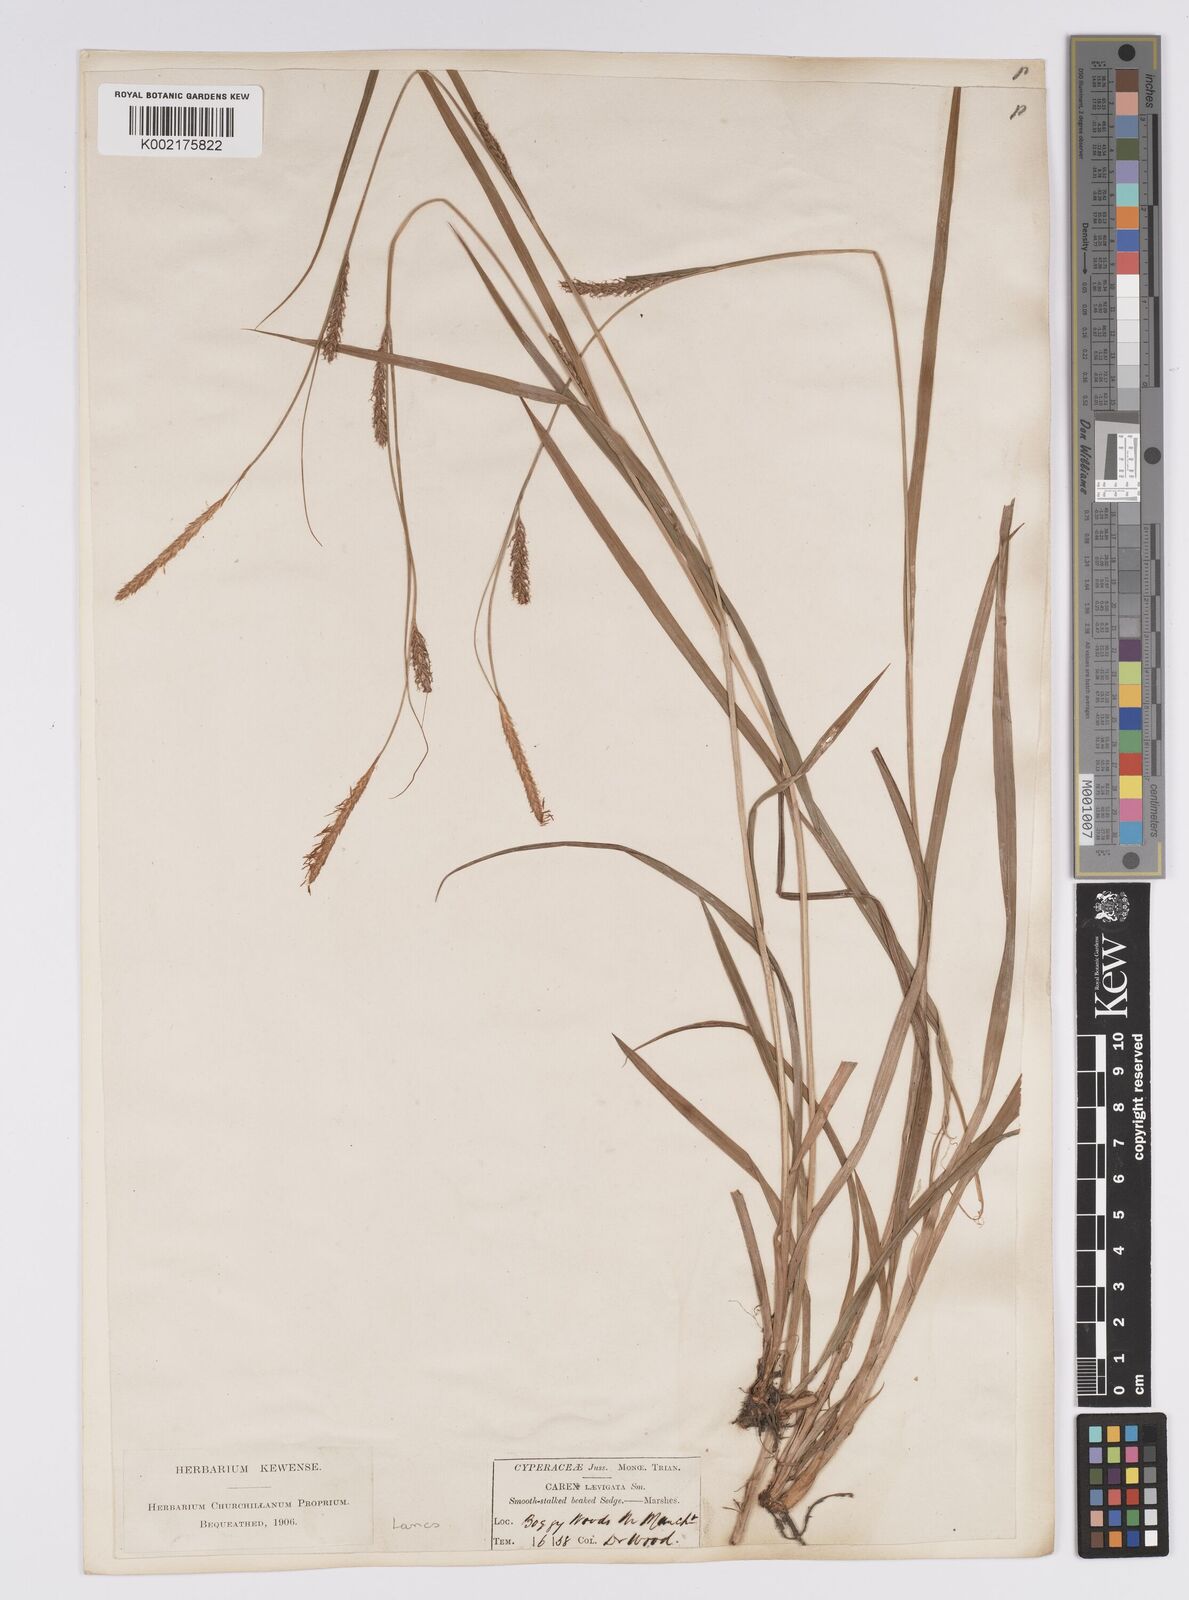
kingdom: Plantae
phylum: Tracheophyta
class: Liliopsida
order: Poales
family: Cyperaceae
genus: Carex
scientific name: Carex laevigata
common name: Smooth-stalked sedge
